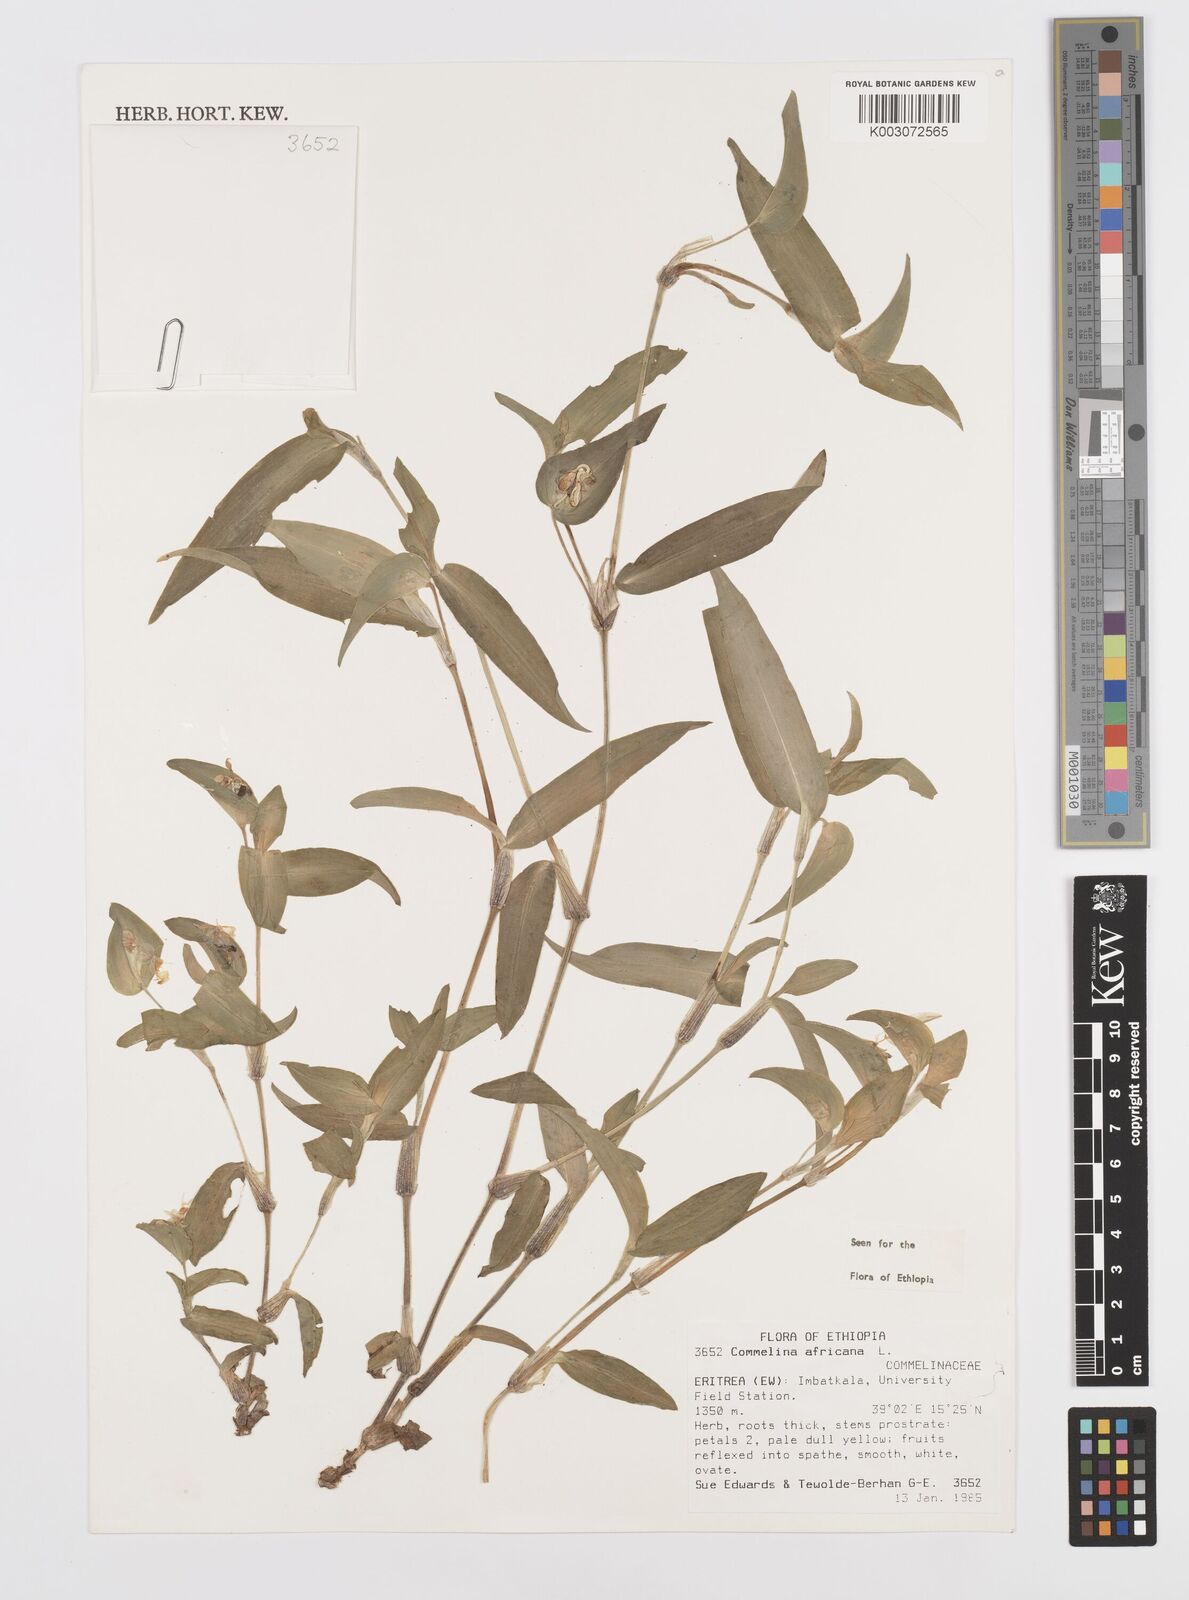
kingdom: Plantae
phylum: Tracheophyta
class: Liliopsida
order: Commelinales
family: Commelinaceae
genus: Commelina
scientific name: Commelina africana
